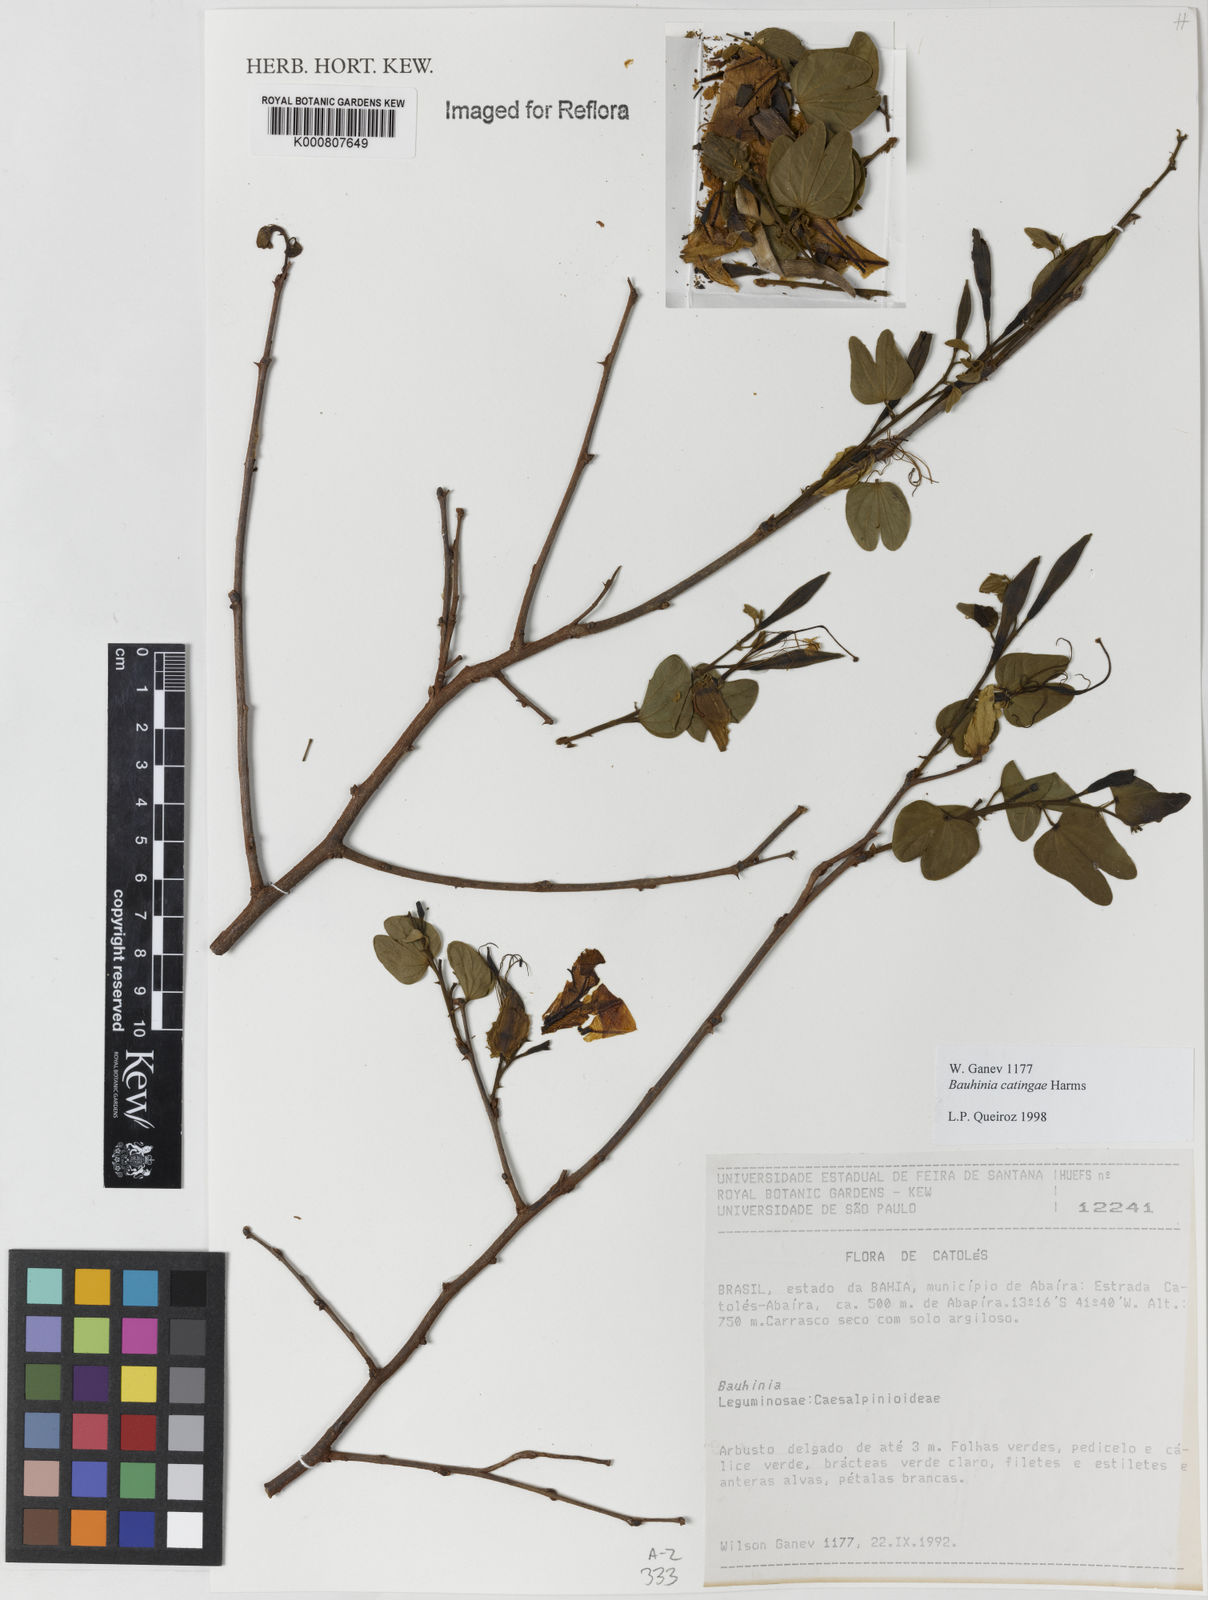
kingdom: Plantae
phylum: Tracheophyta
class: Magnoliopsida
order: Fabales
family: Fabaceae
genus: Bauhinia
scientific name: Bauhinia catingae
